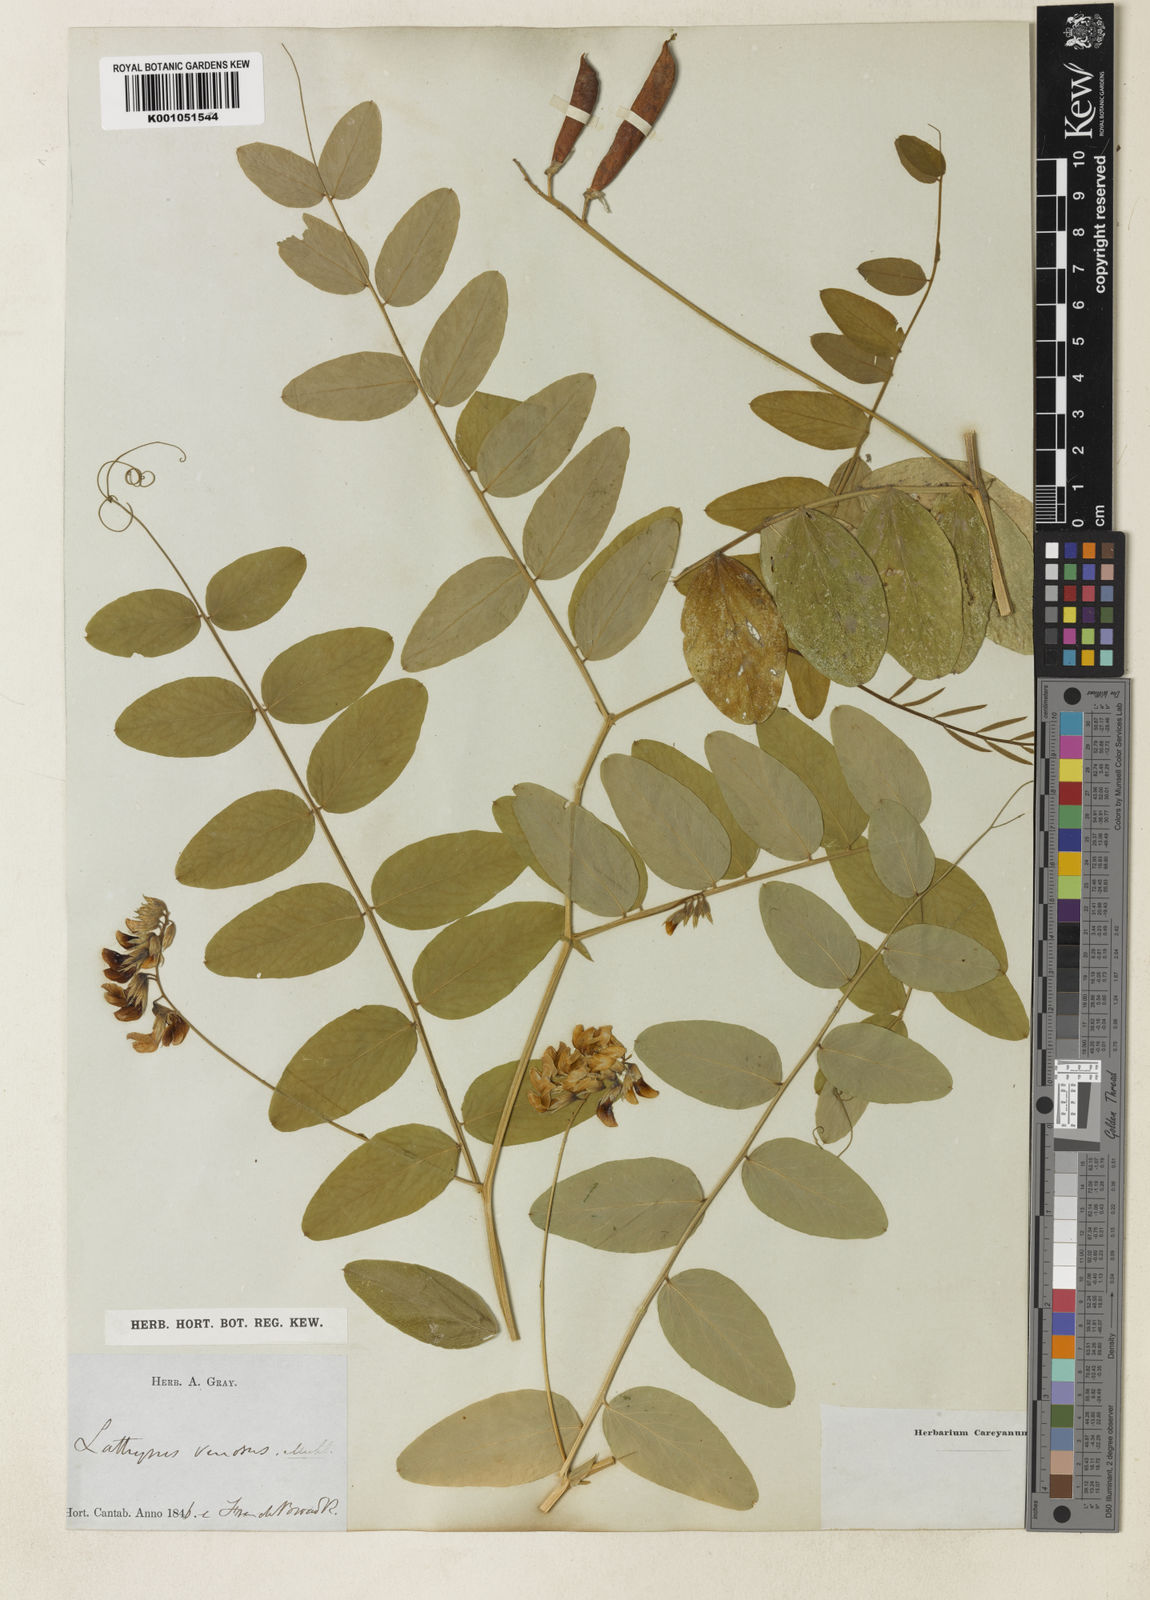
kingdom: Plantae
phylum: Tracheophyta
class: Magnoliopsida
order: Fabales
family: Fabaceae
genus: Lathyrus
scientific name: Lathyrus venosus
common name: Forest-pea
